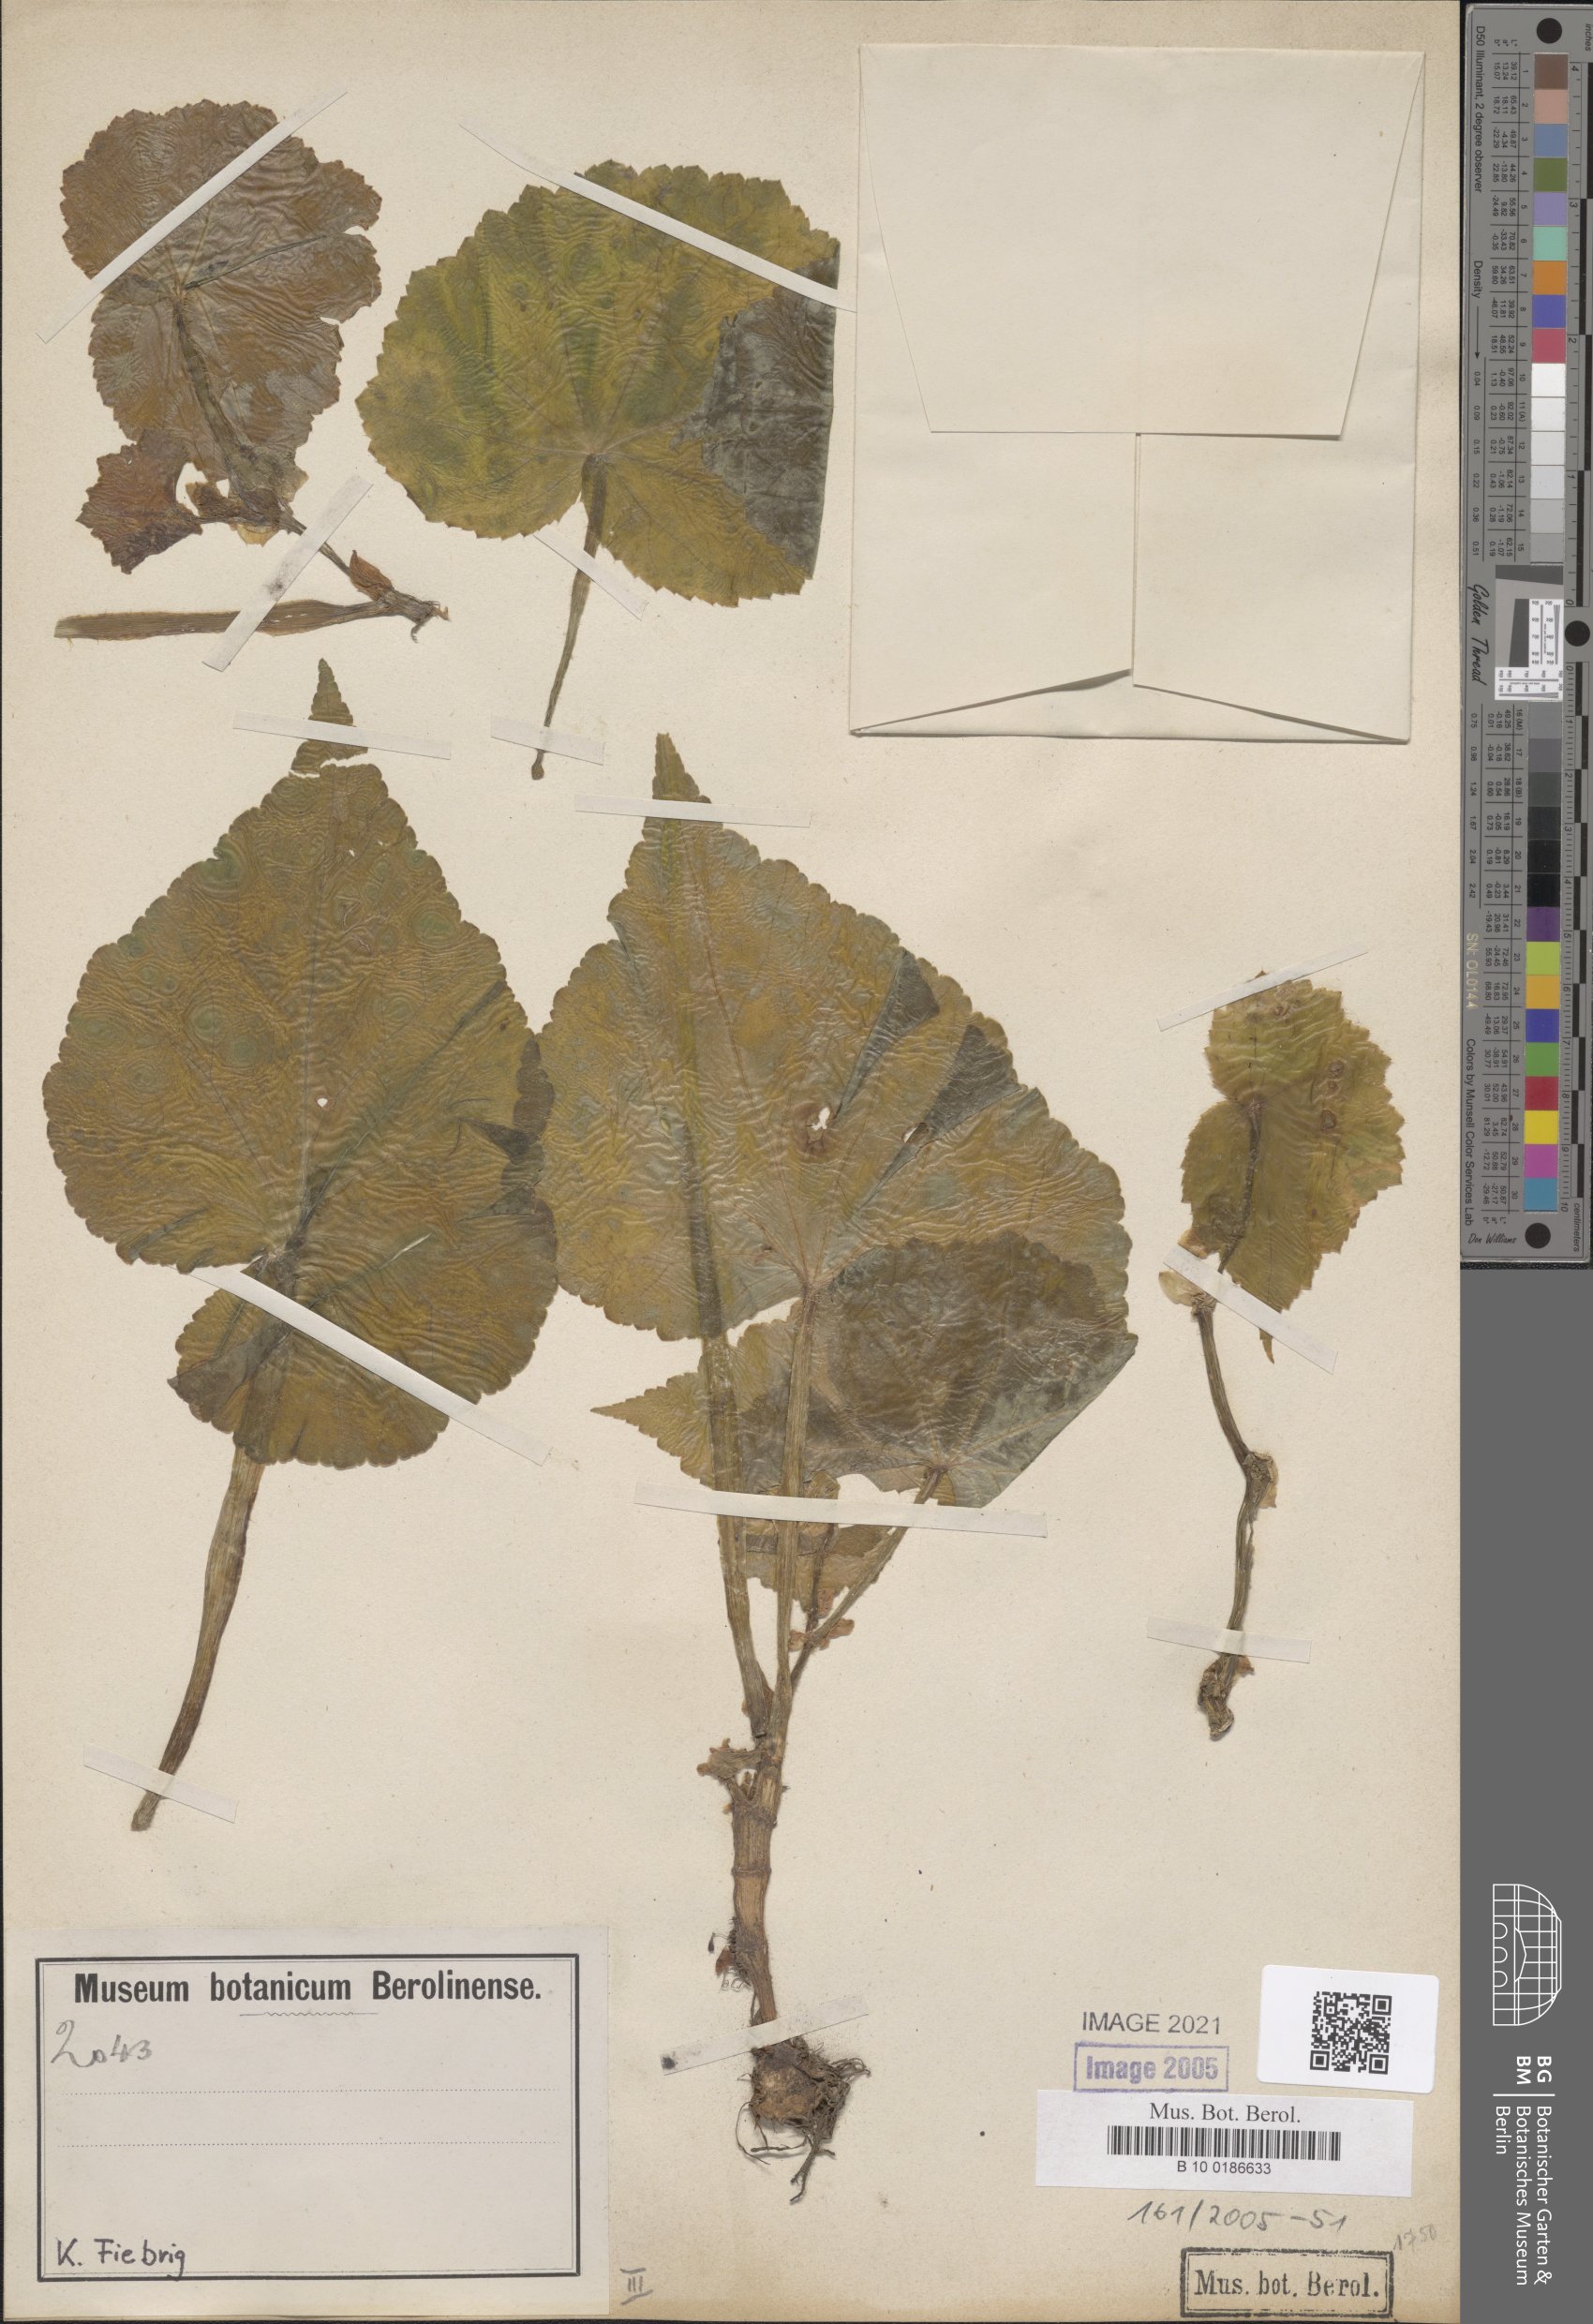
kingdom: Plantae
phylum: Tracheophyta
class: Magnoliopsida
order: Cucurbitales
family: Begoniaceae
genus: Begonia
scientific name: Begonia micranthera
